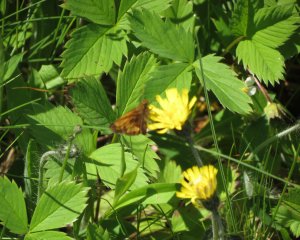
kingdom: Animalia
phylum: Arthropoda
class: Insecta
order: Lepidoptera
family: Hesperiidae
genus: Lon
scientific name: Lon hobomok
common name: Hobomok Skipper
